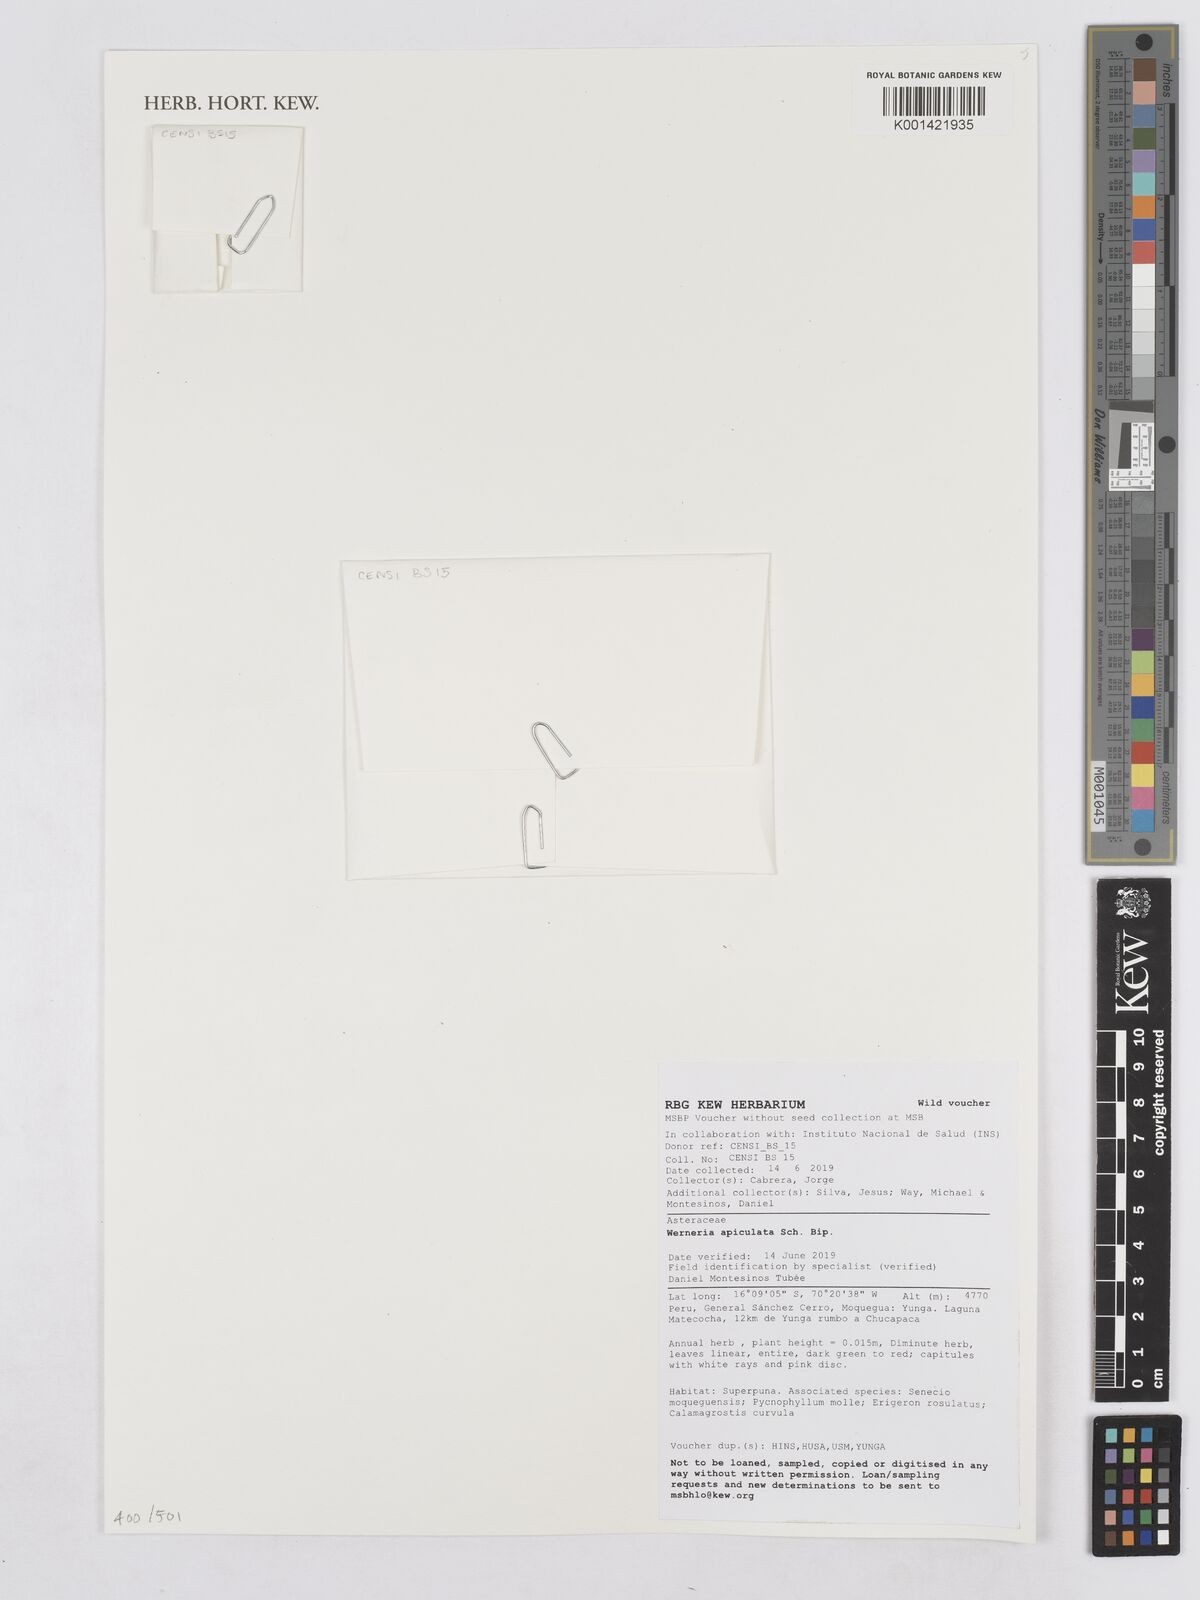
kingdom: Plantae
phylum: Tracheophyta
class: Magnoliopsida
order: Asterales
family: Asteraceae
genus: Rockhausenia
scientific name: Rockhausenia apiculata
